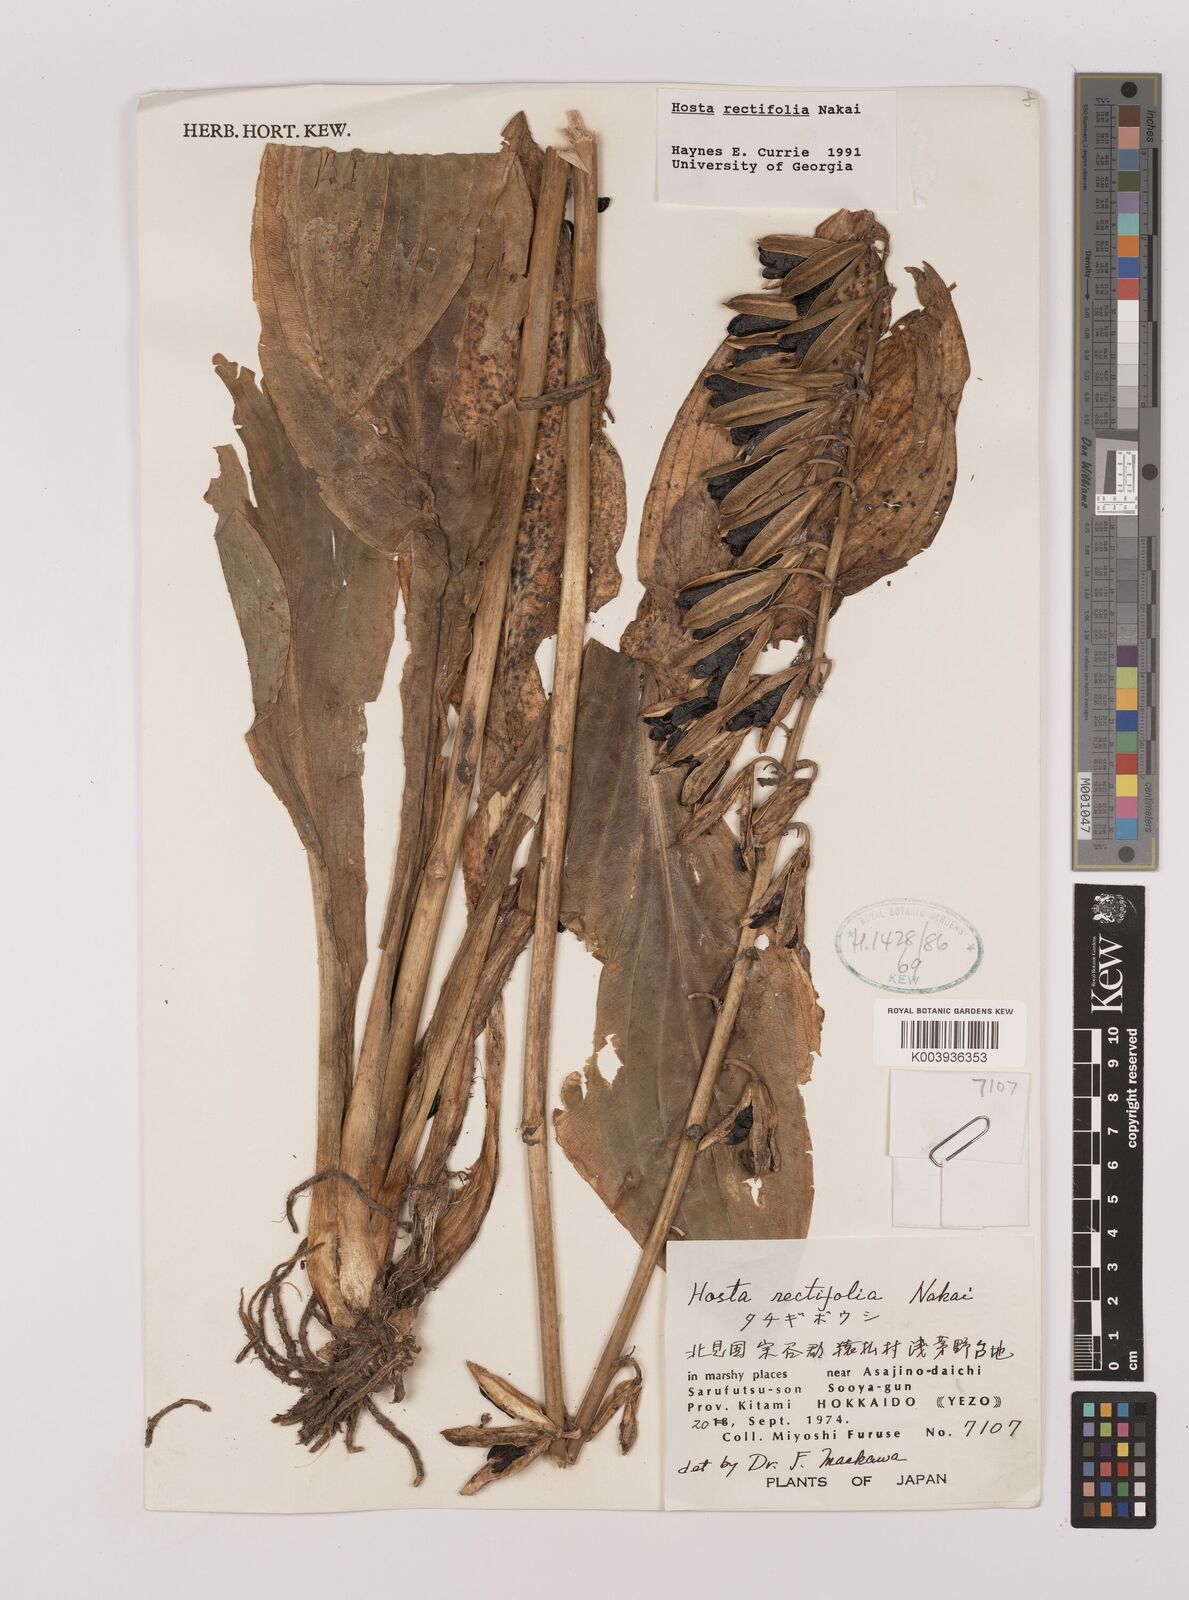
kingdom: Plantae
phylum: Tracheophyta
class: Liliopsida
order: Asparagales
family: Asparagaceae
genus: Hosta
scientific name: Hosta sieboldii
